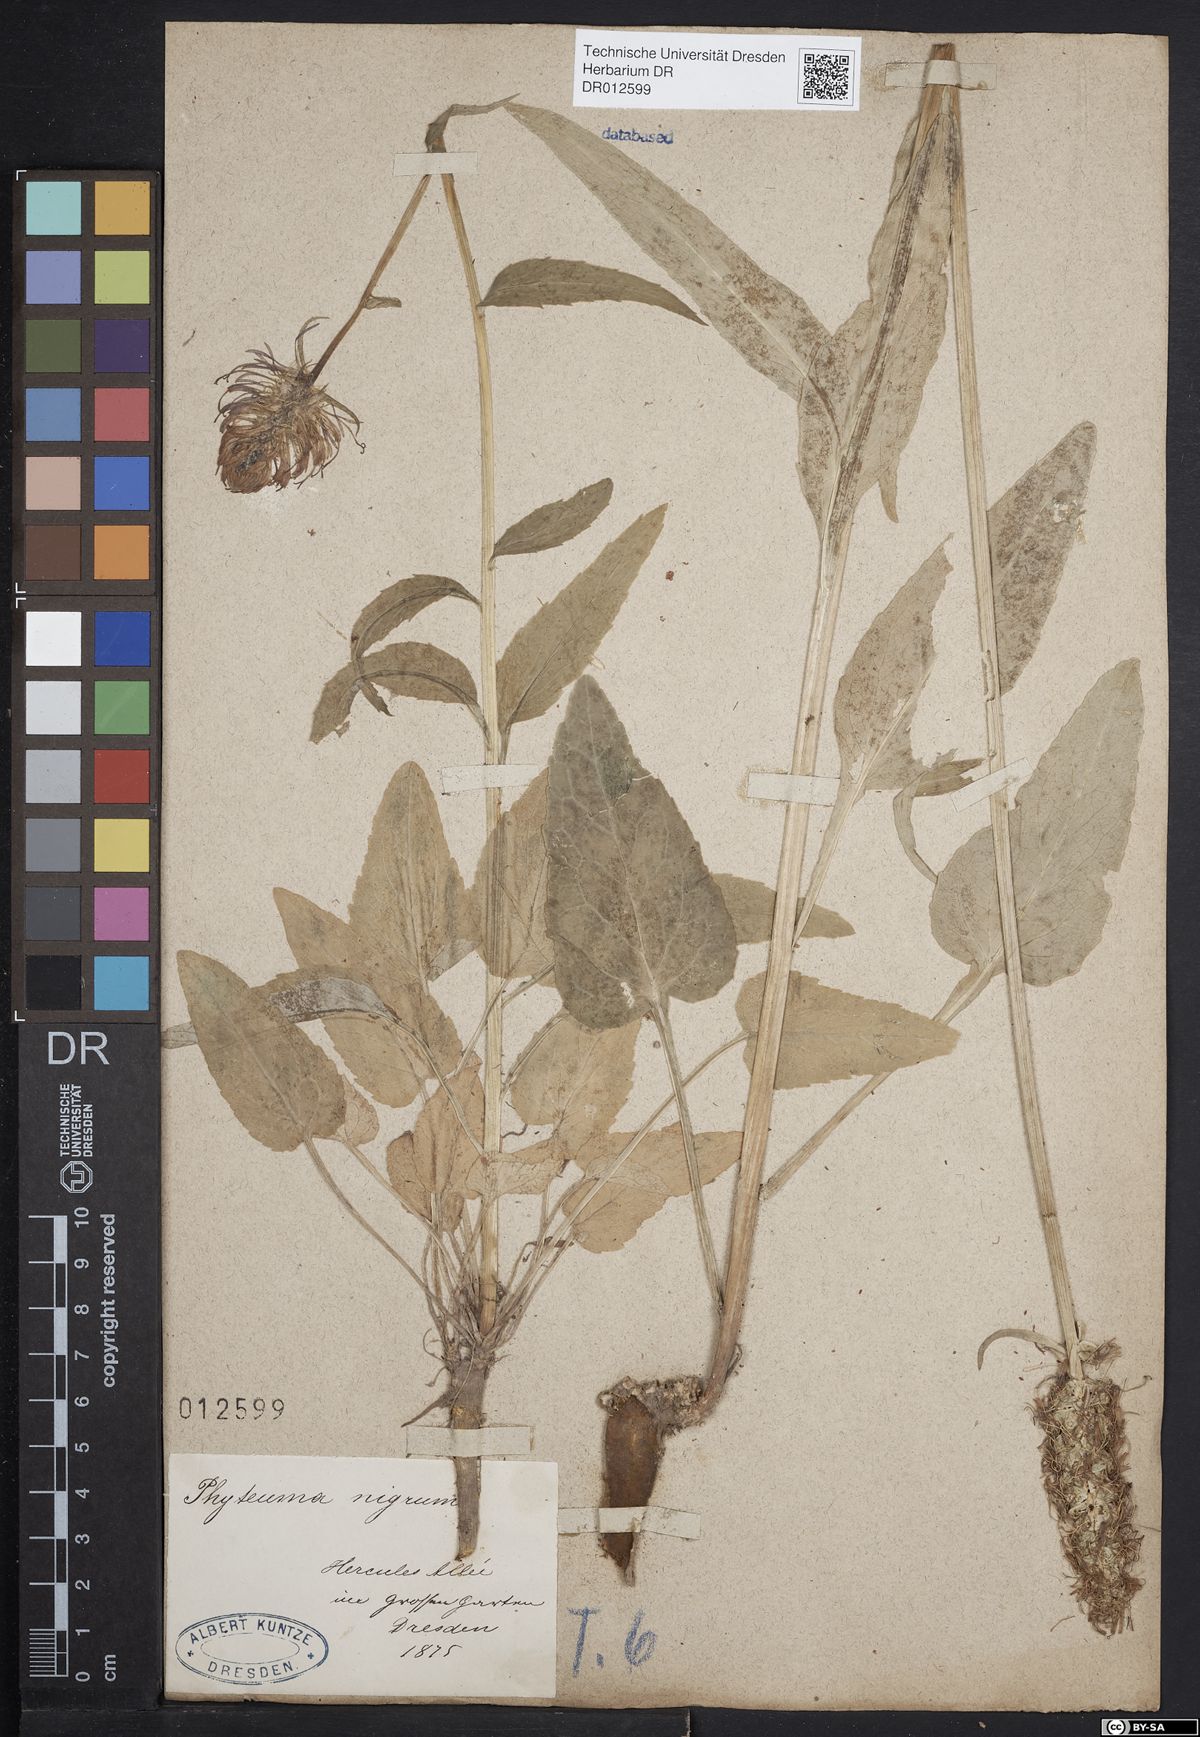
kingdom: Plantae
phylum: Tracheophyta
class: Magnoliopsida
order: Asterales
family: Campanulaceae
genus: Phyteuma
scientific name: Phyteuma nigrum
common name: Black rampion
